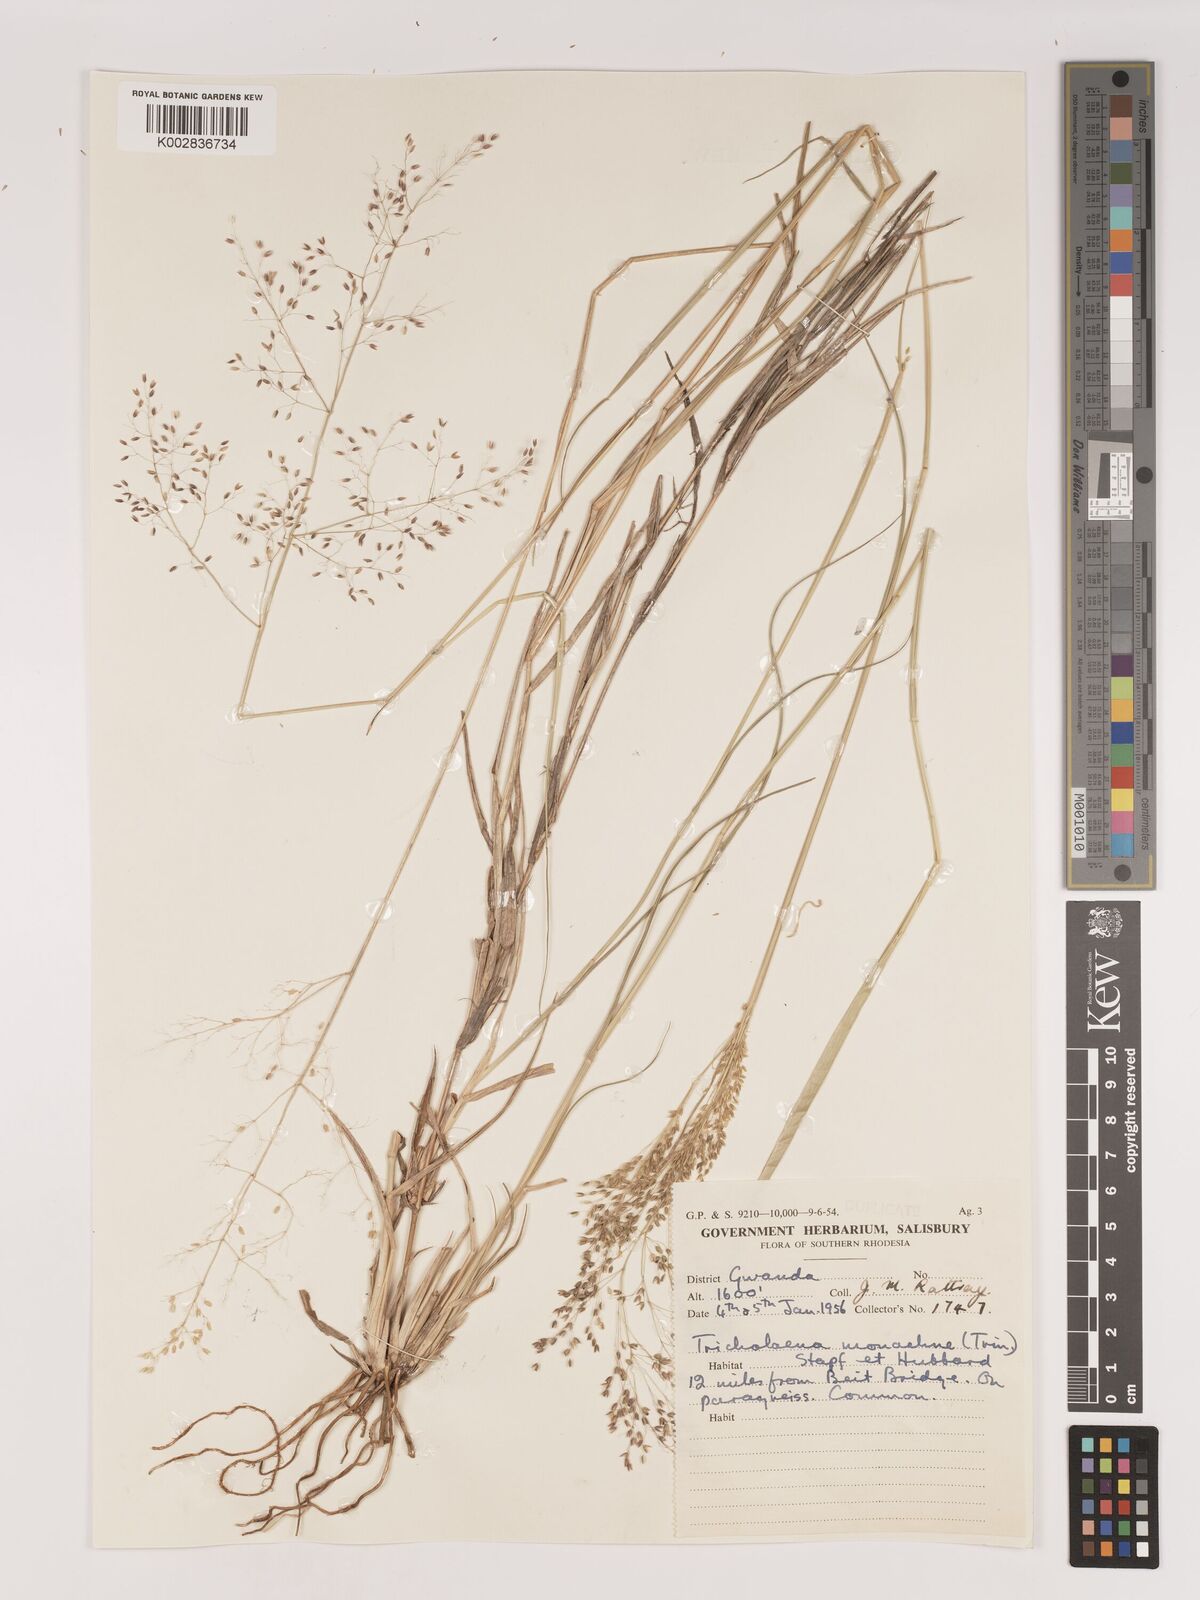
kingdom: Plantae
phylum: Tracheophyta
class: Liliopsida
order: Poales
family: Poaceae
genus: Tricholaena
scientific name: Tricholaena monachne
